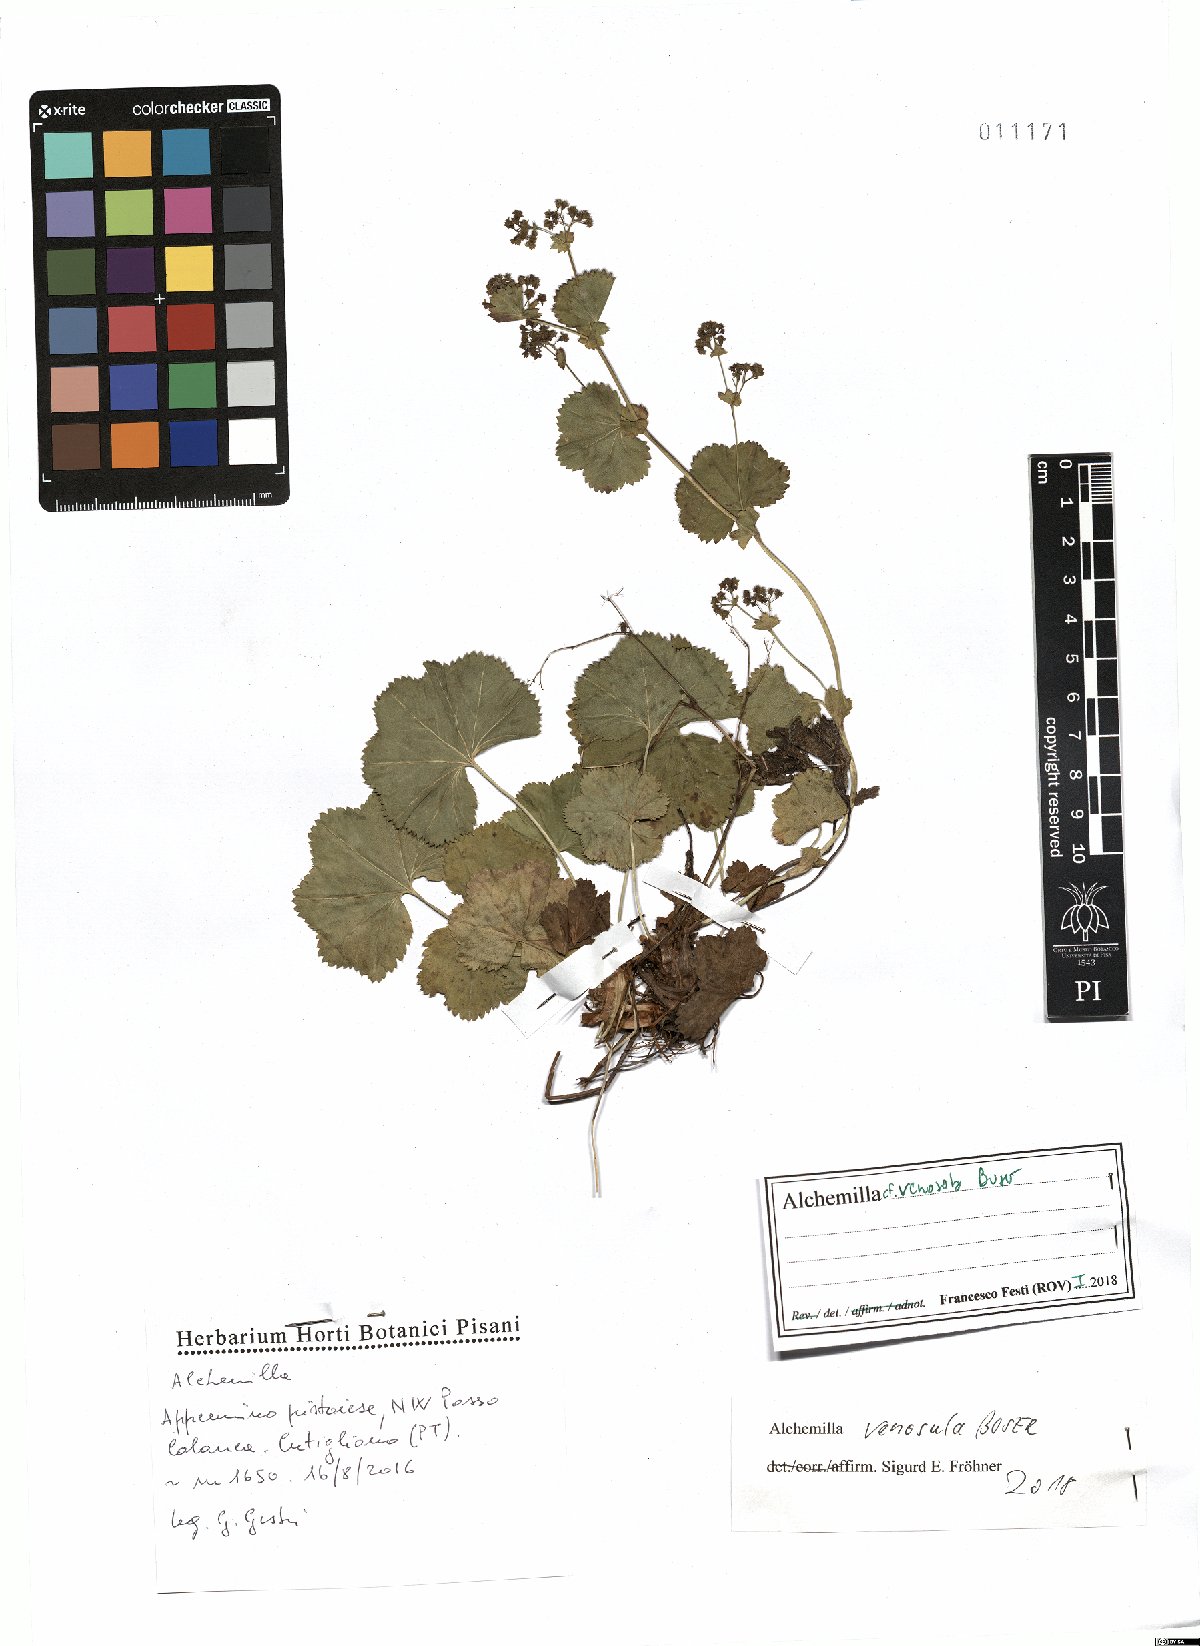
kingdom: Plantae
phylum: Tracheophyta
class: Magnoliopsida
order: Rosales
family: Rosaceae
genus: Alchemilla
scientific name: Alchemilla venosula
